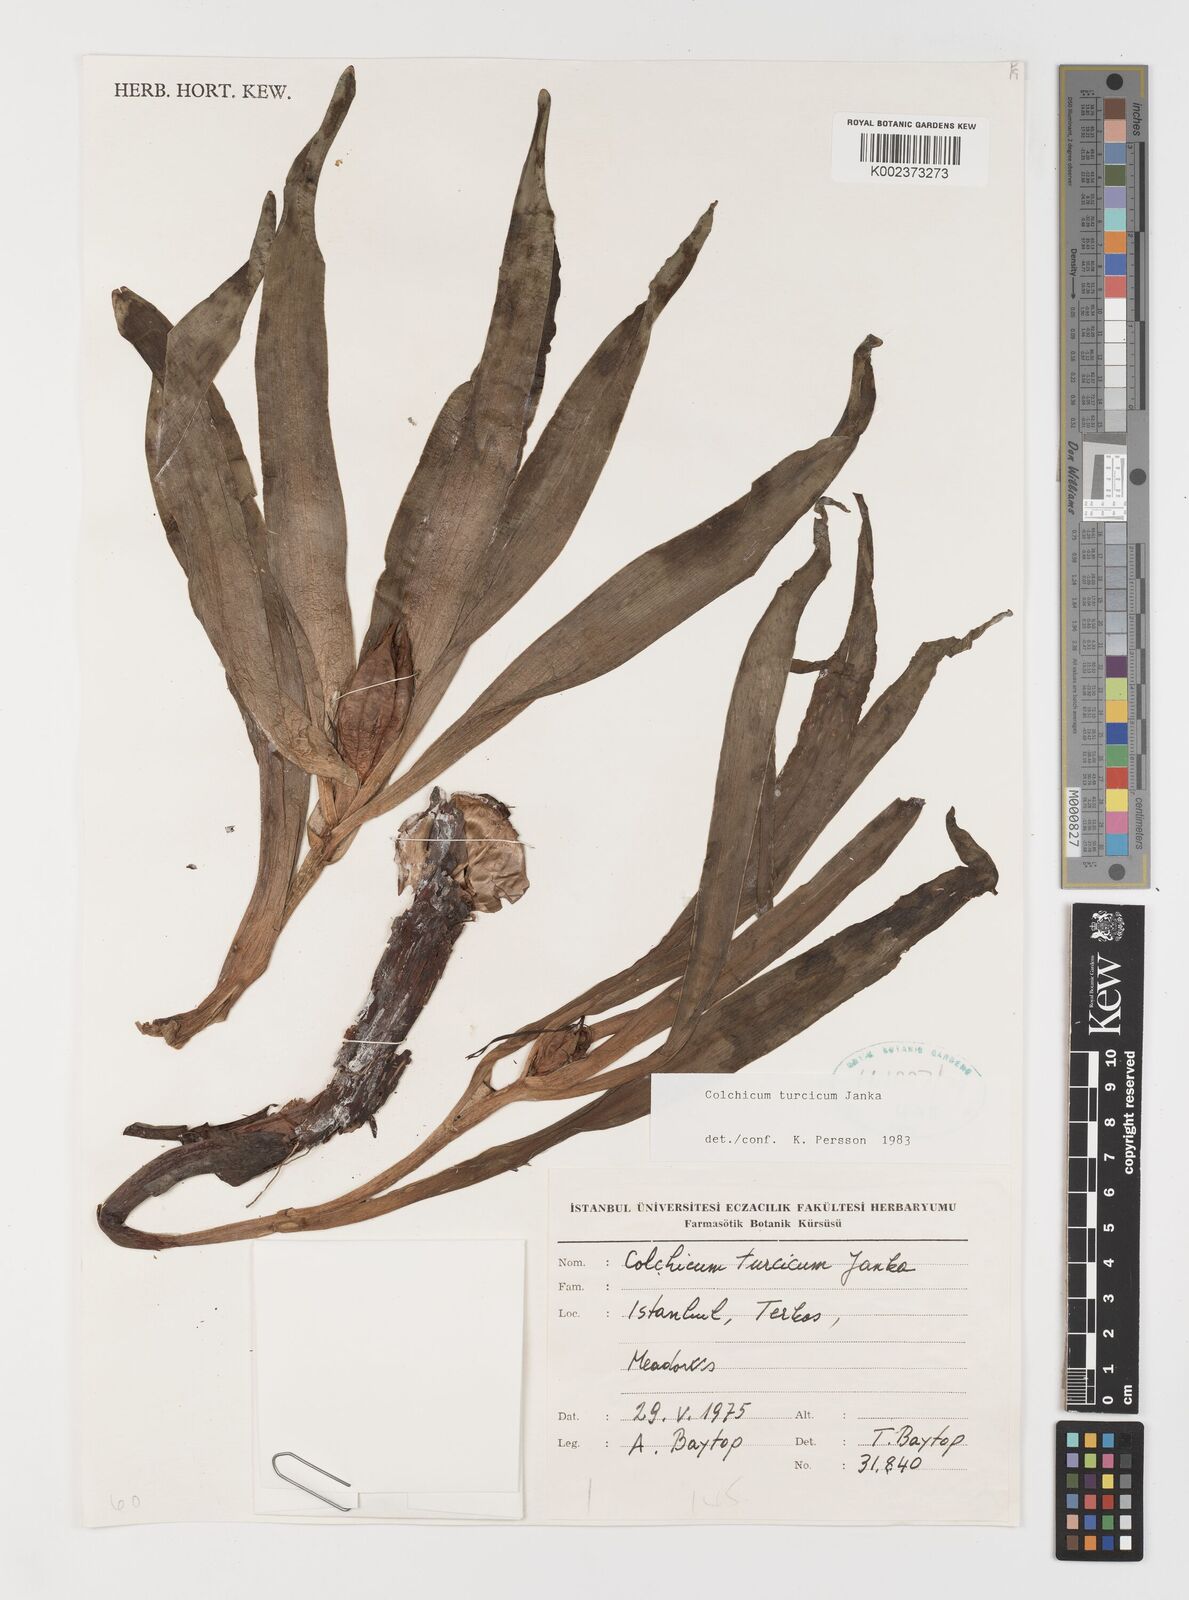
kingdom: Plantae
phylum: Tracheophyta
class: Liliopsida
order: Liliales
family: Colchicaceae
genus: Colchicum
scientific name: Colchicum turcicum
